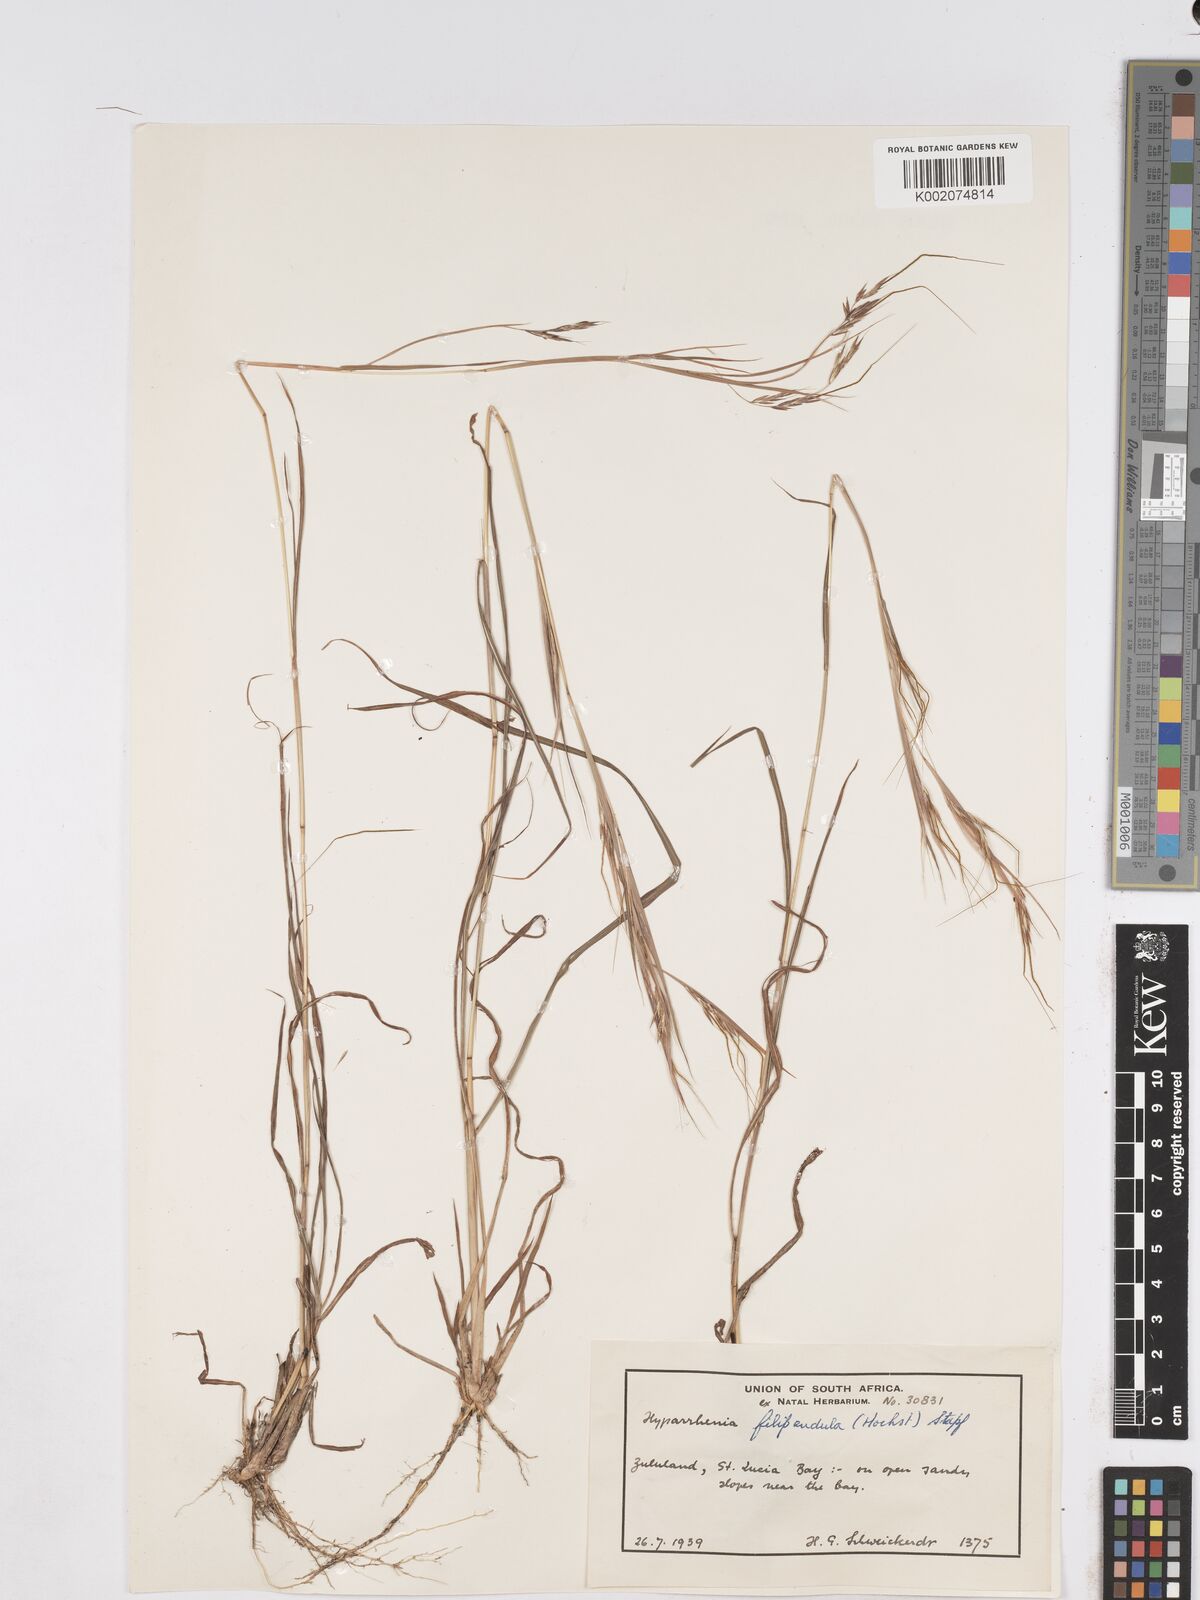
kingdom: Plantae
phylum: Tracheophyta
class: Liliopsida
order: Poales
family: Poaceae
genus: Hyparrhenia
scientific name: Hyparrhenia filipendula
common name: Tambookie grass
